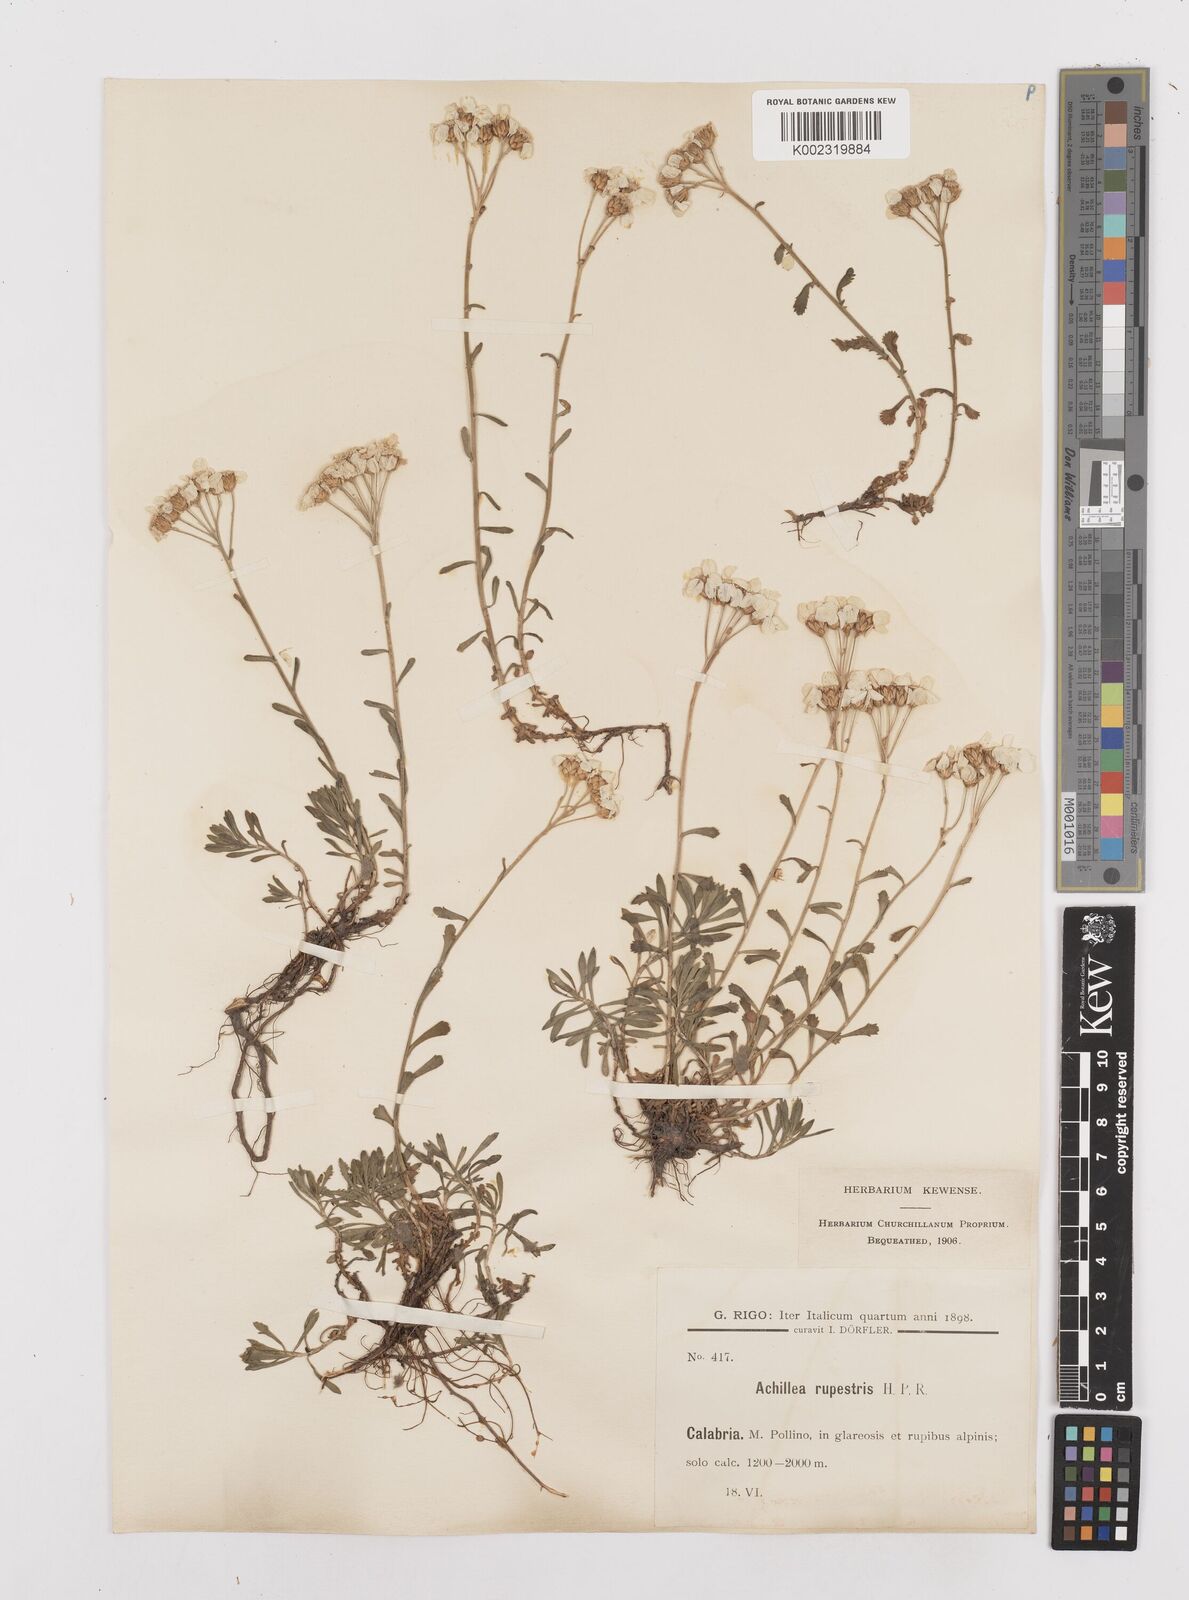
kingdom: Plantae
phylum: Tracheophyta
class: Magnoliopsida
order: Asterales
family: Asteraceae
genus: Achillea
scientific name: Achillea rupestris
